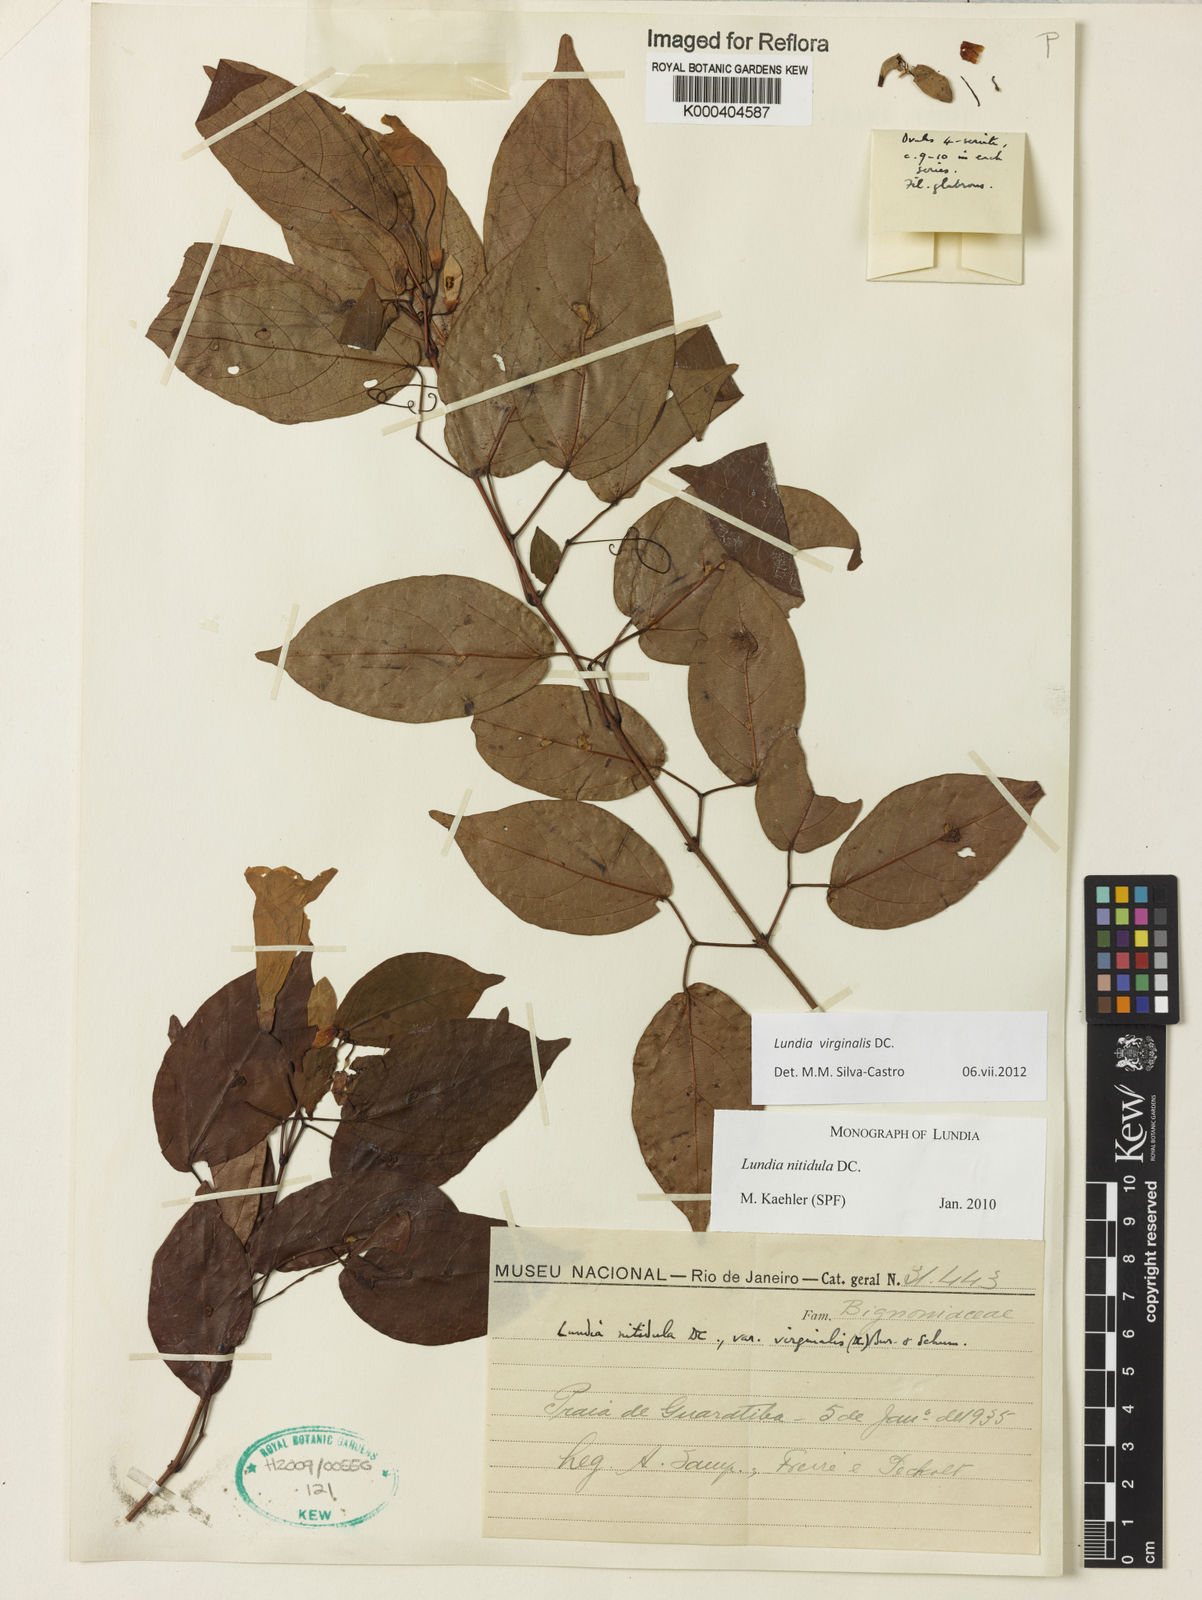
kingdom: Plantae
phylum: Tracheophyta
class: Magnoliopsida
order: Lamiales
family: Bignoniaceae
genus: Lundia
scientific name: Lundia virginalis
